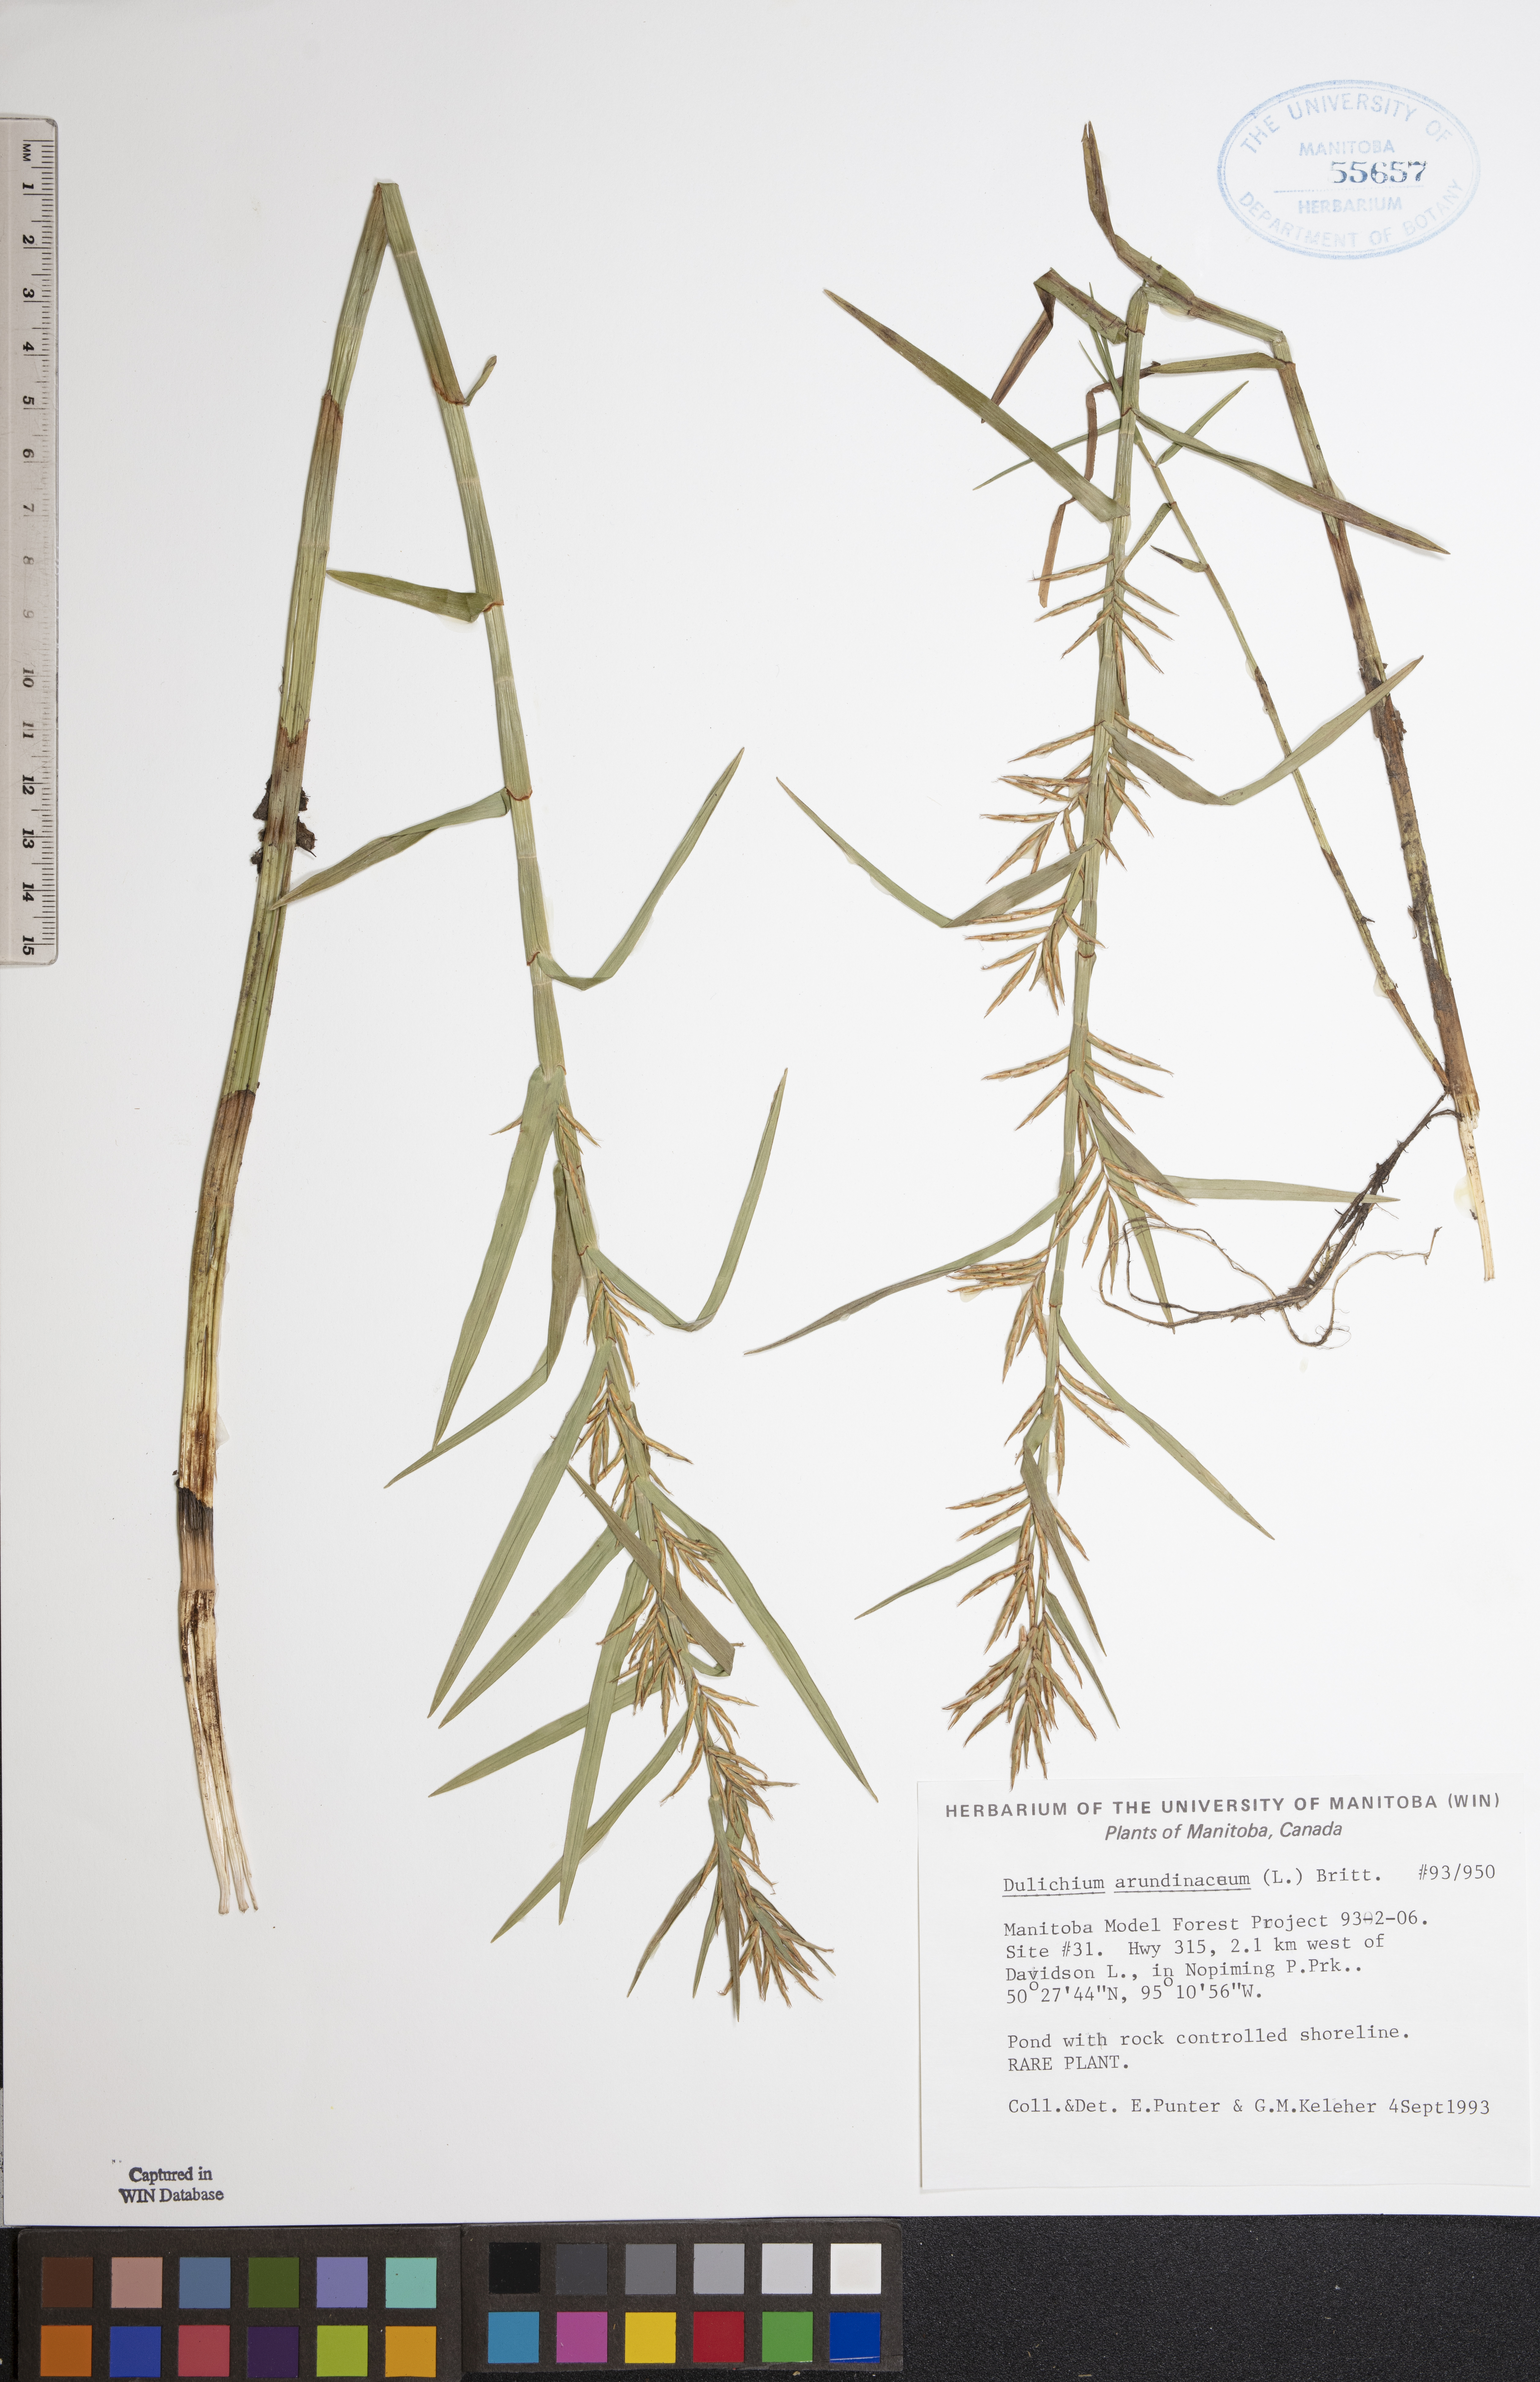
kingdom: Plantae
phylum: Tracheophyta
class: Liliopsida
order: Poales
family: Cyperaceae
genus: Dulichium
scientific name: Dulichium arundinaceum
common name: Three-way sedge
